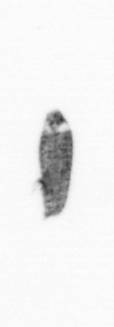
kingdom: Animalia
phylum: Arthropoda
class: Copepoda
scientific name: Copepoda
